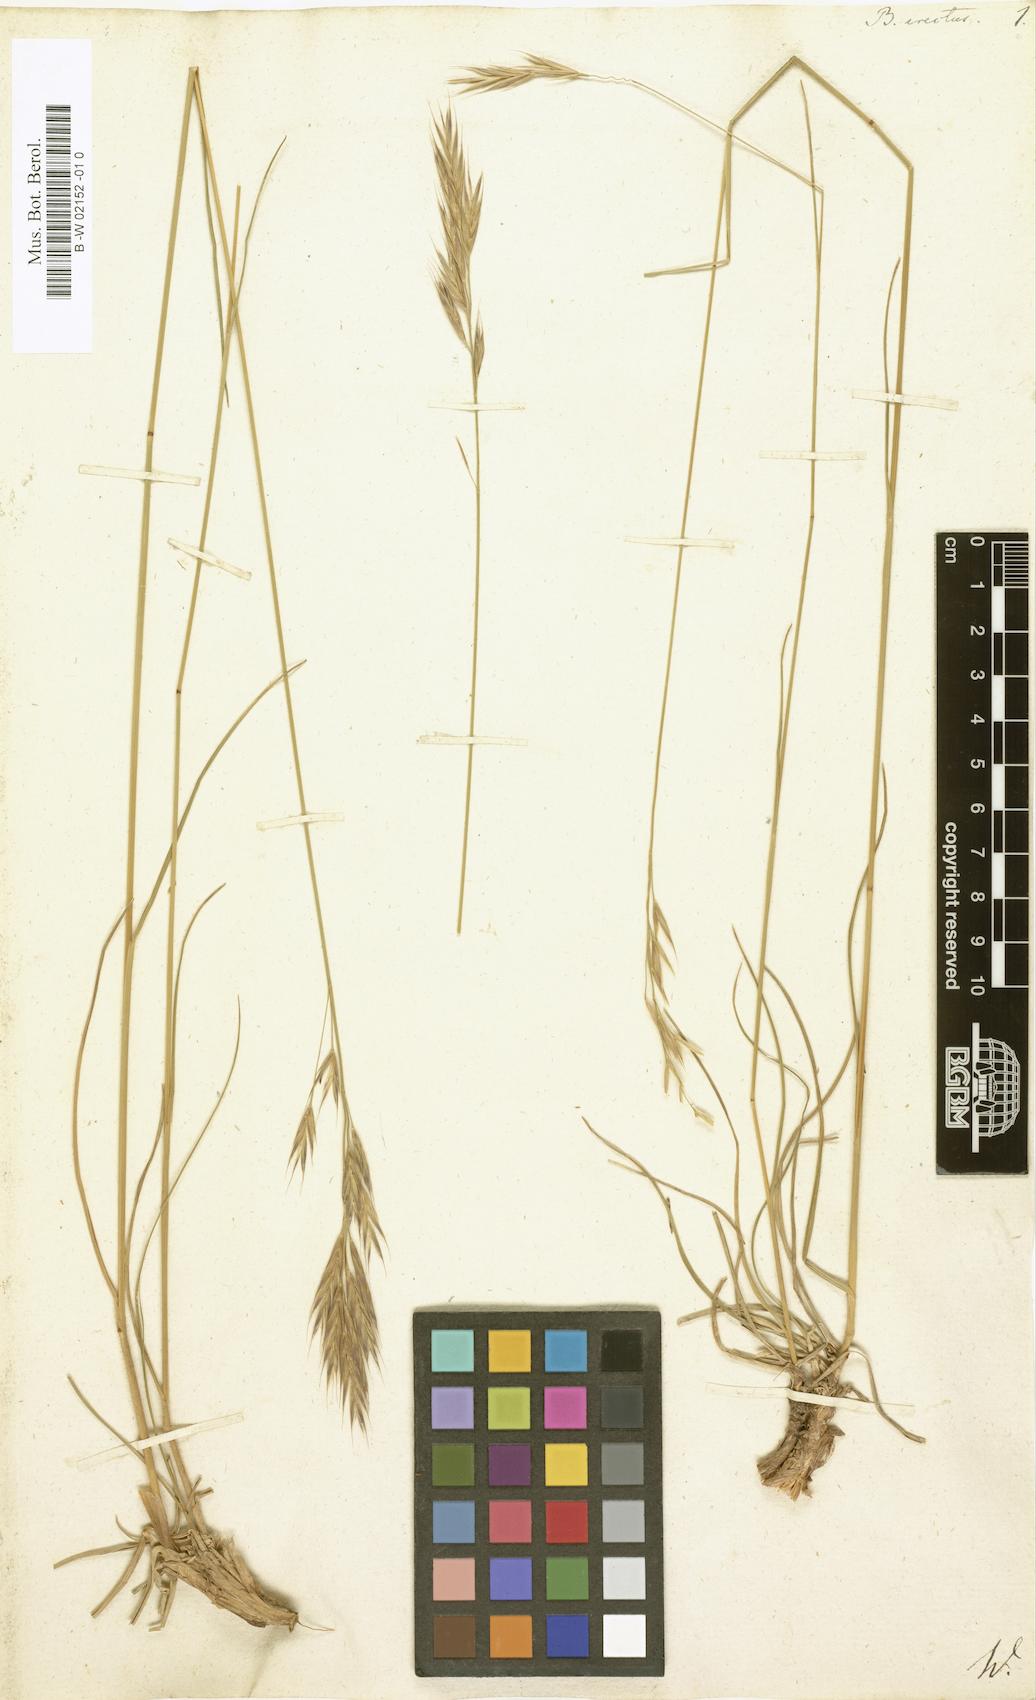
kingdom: Plantae
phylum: Tracheophyta
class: Liliopsida
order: Poales
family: Poaceae
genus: Bromus
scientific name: Bromus erectus
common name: Erect brome
